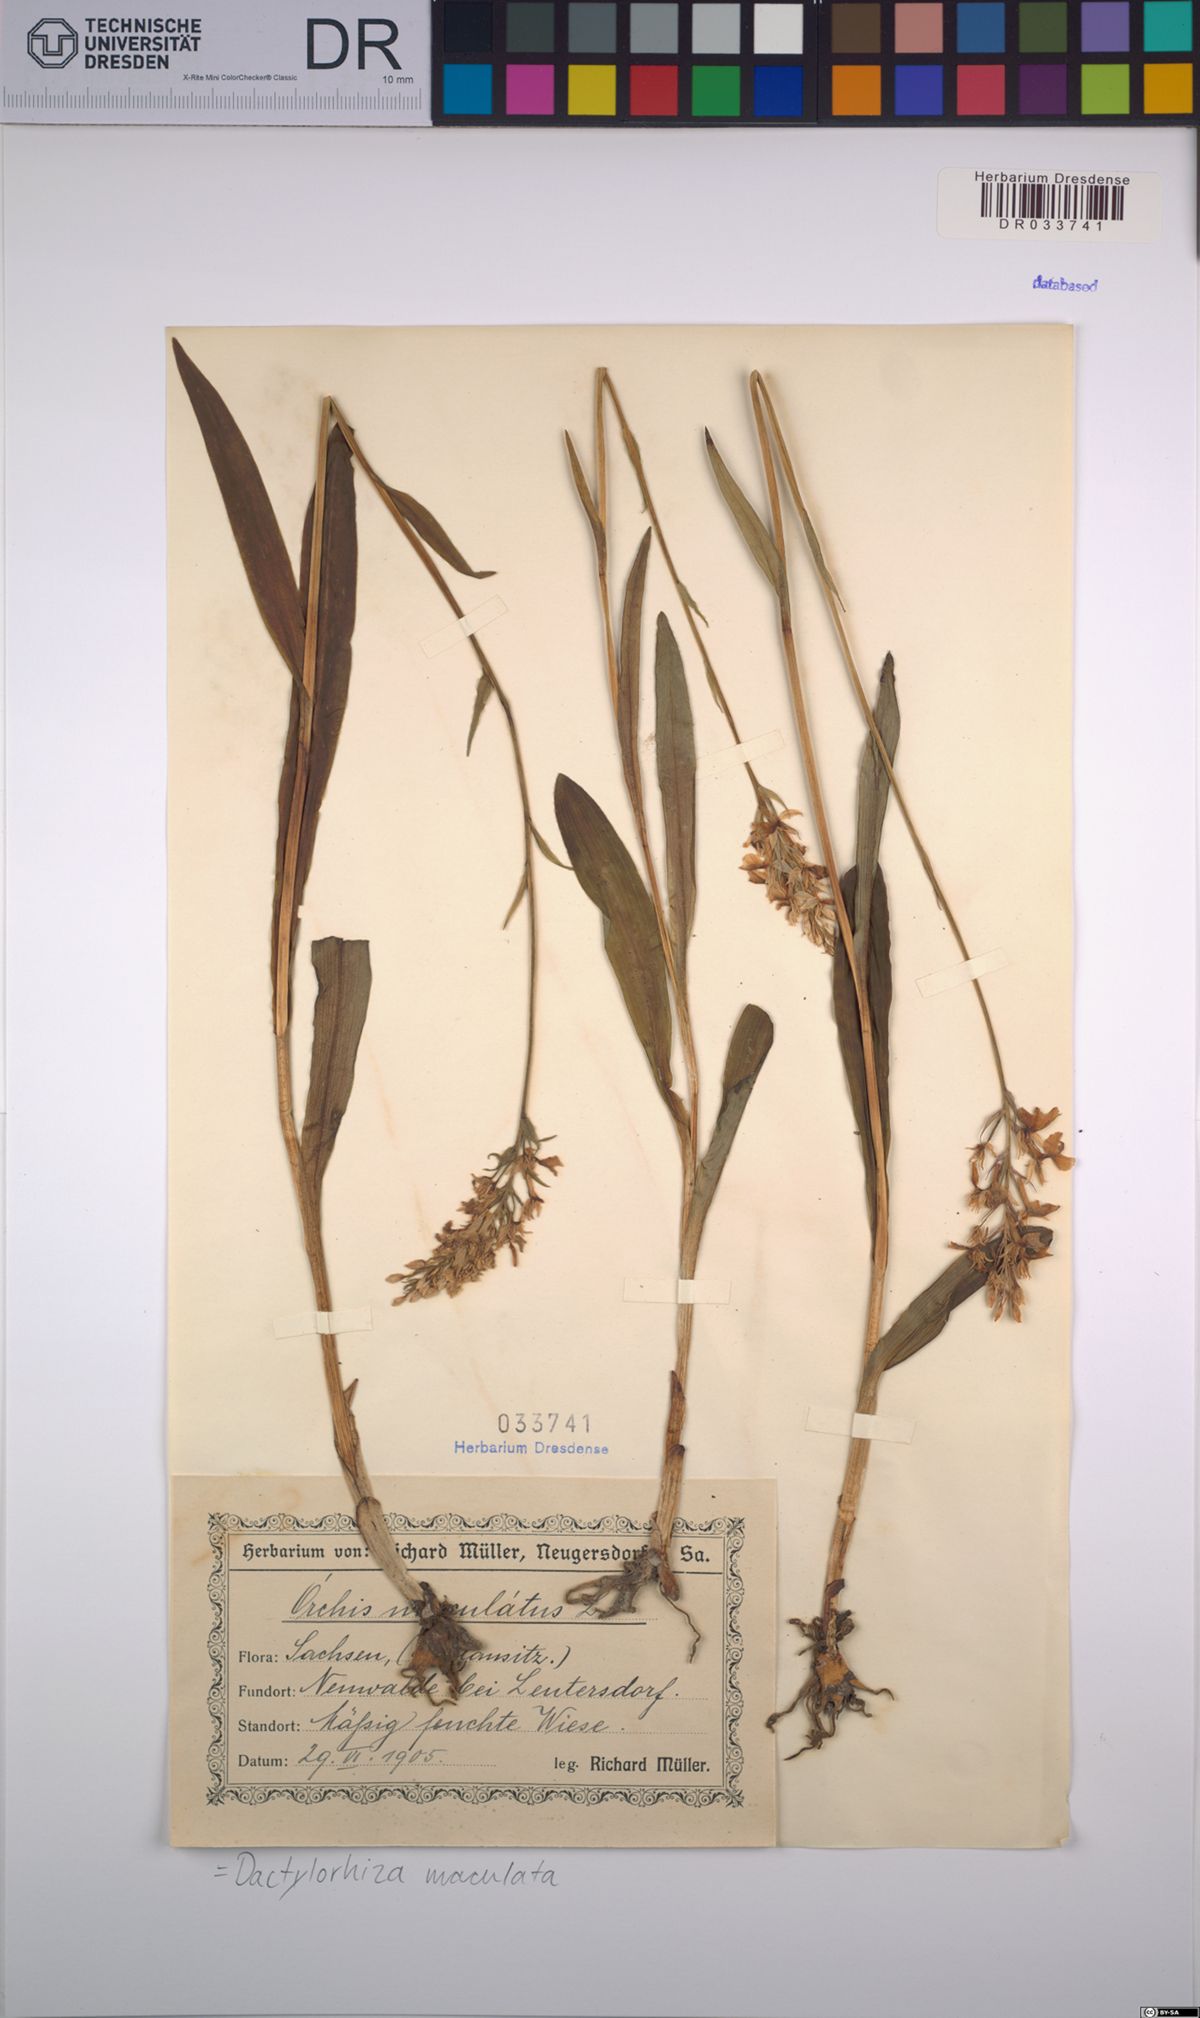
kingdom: Plantae
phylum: Tracheophyta
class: Liliopsida
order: Asparagales
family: Orchidaceae
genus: Dactylorhiza
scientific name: Dactylorhiza maculata
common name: Heath spotted-orchid
